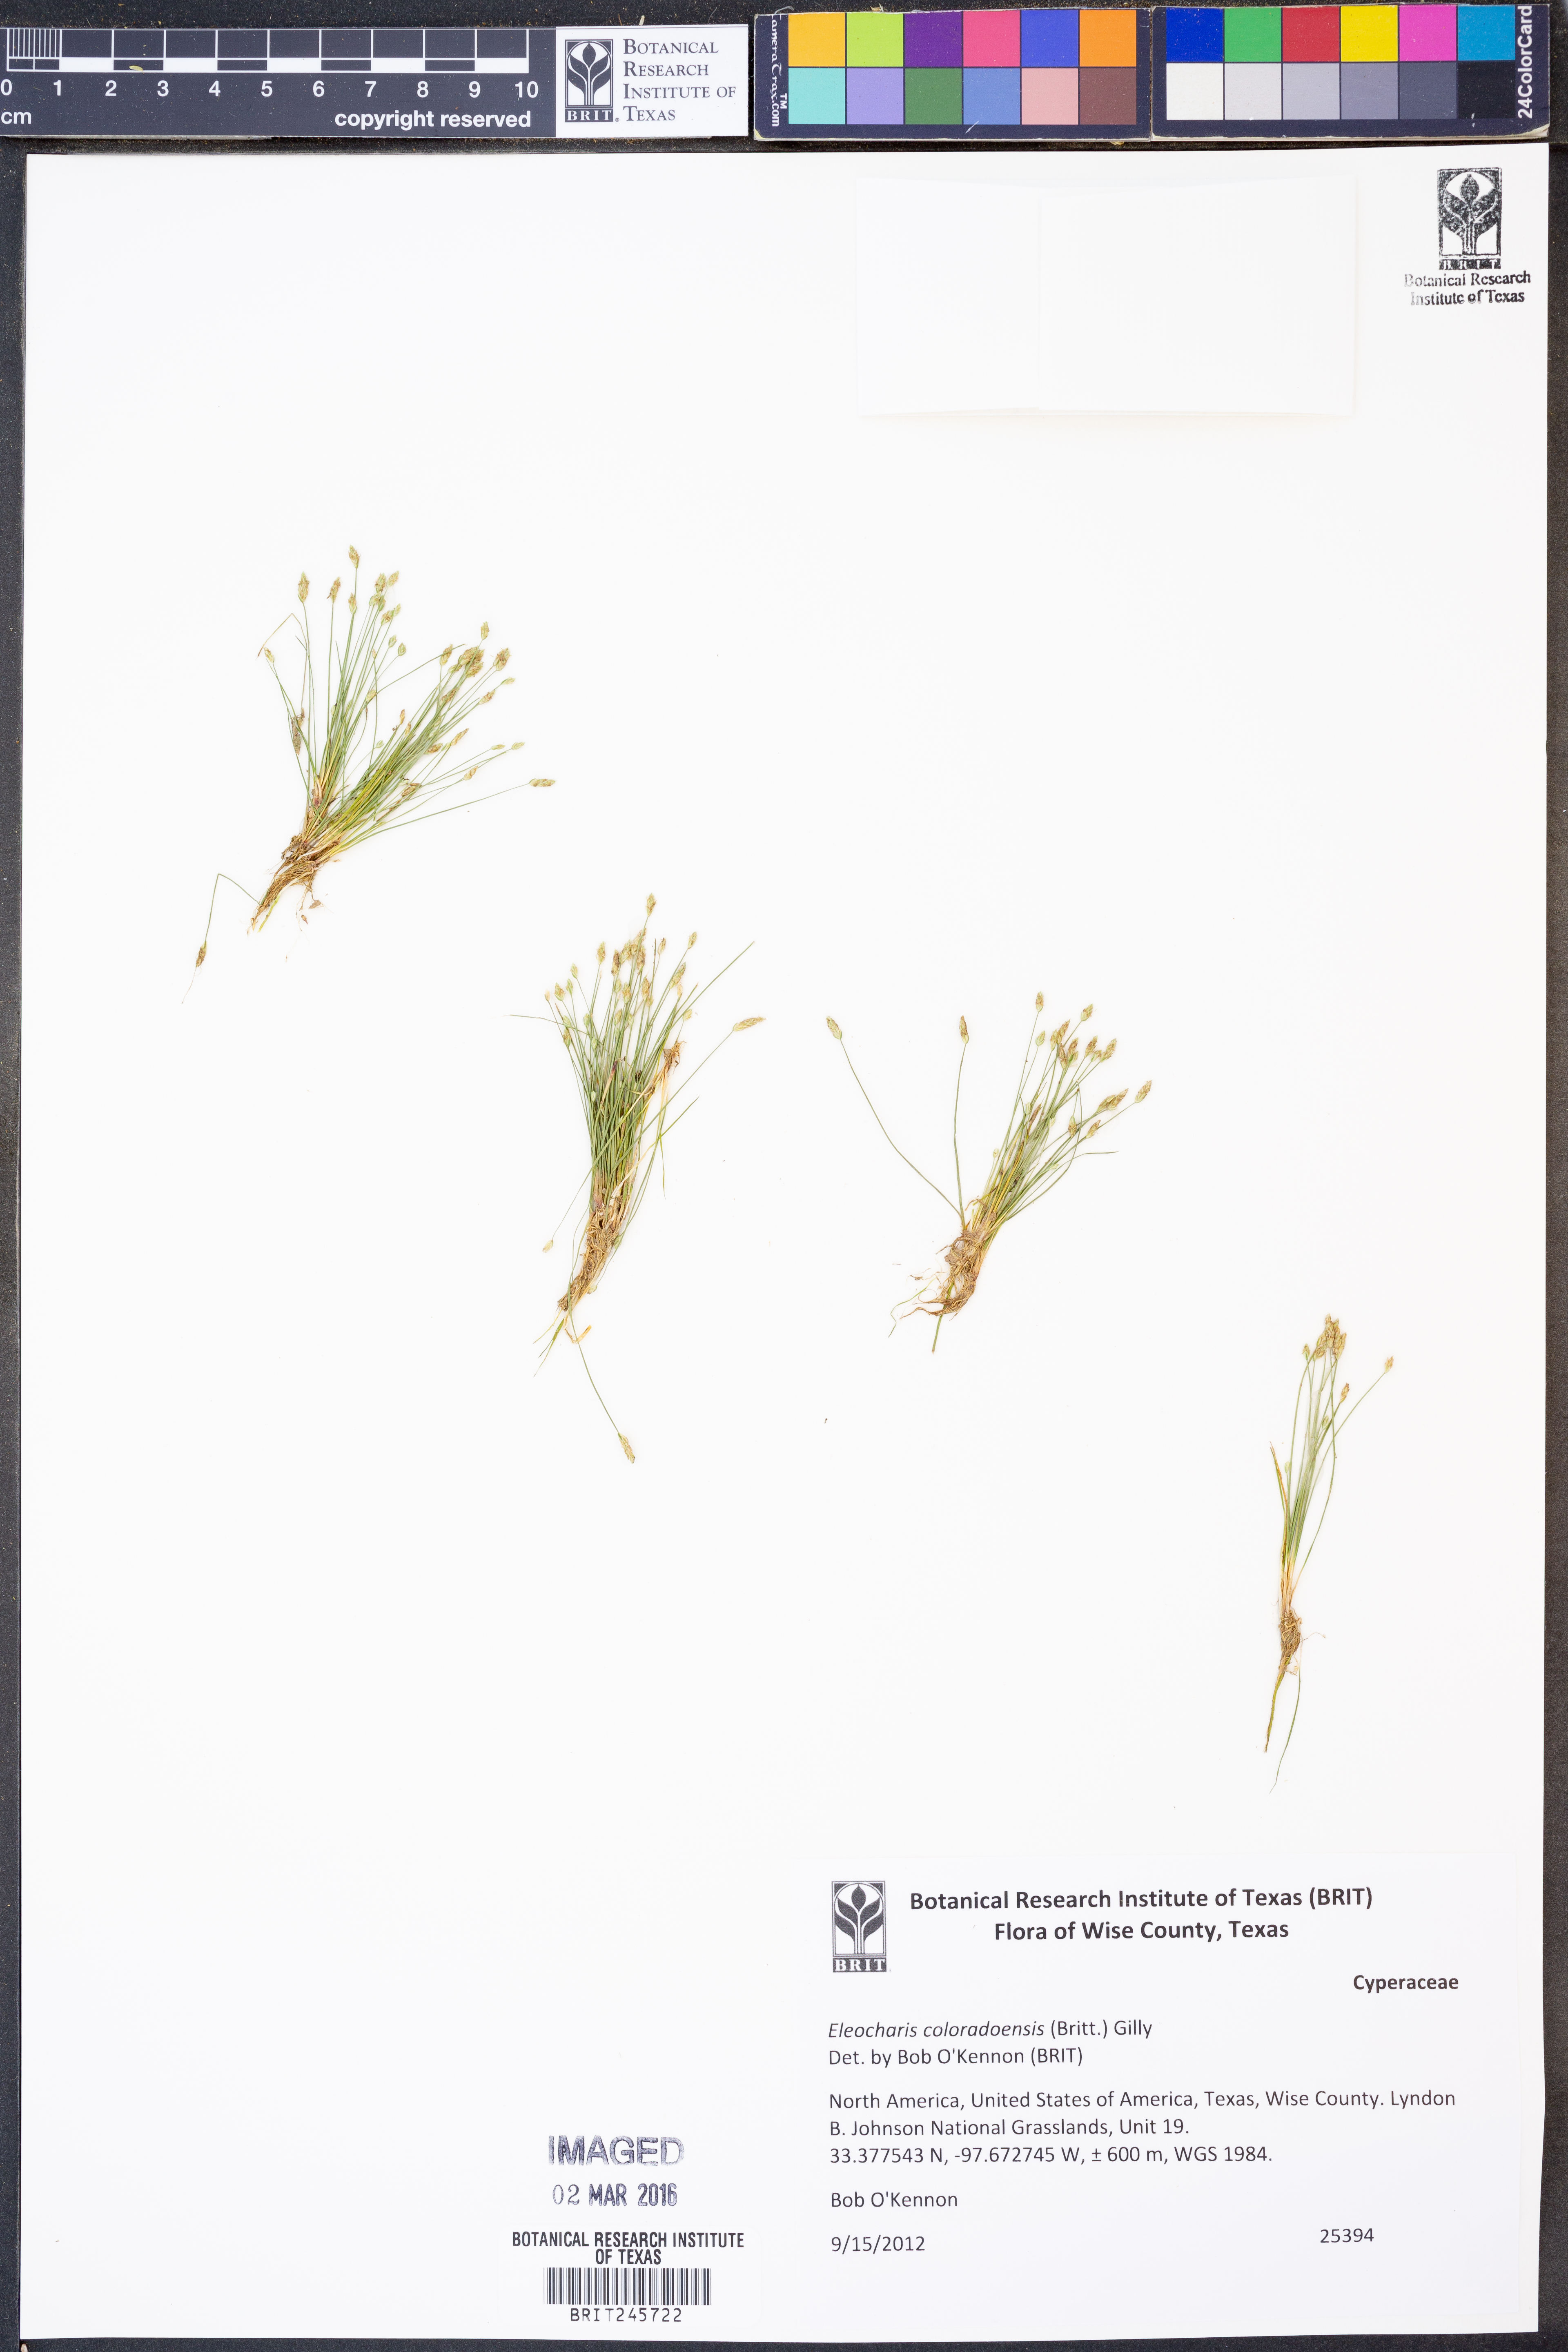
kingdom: Plantae
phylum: Tracheophyta
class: Liliopsida
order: Poales
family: Cyperaceae
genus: Eleocharis
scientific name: Eleocharis coloradoensis
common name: Colorado spikerush
